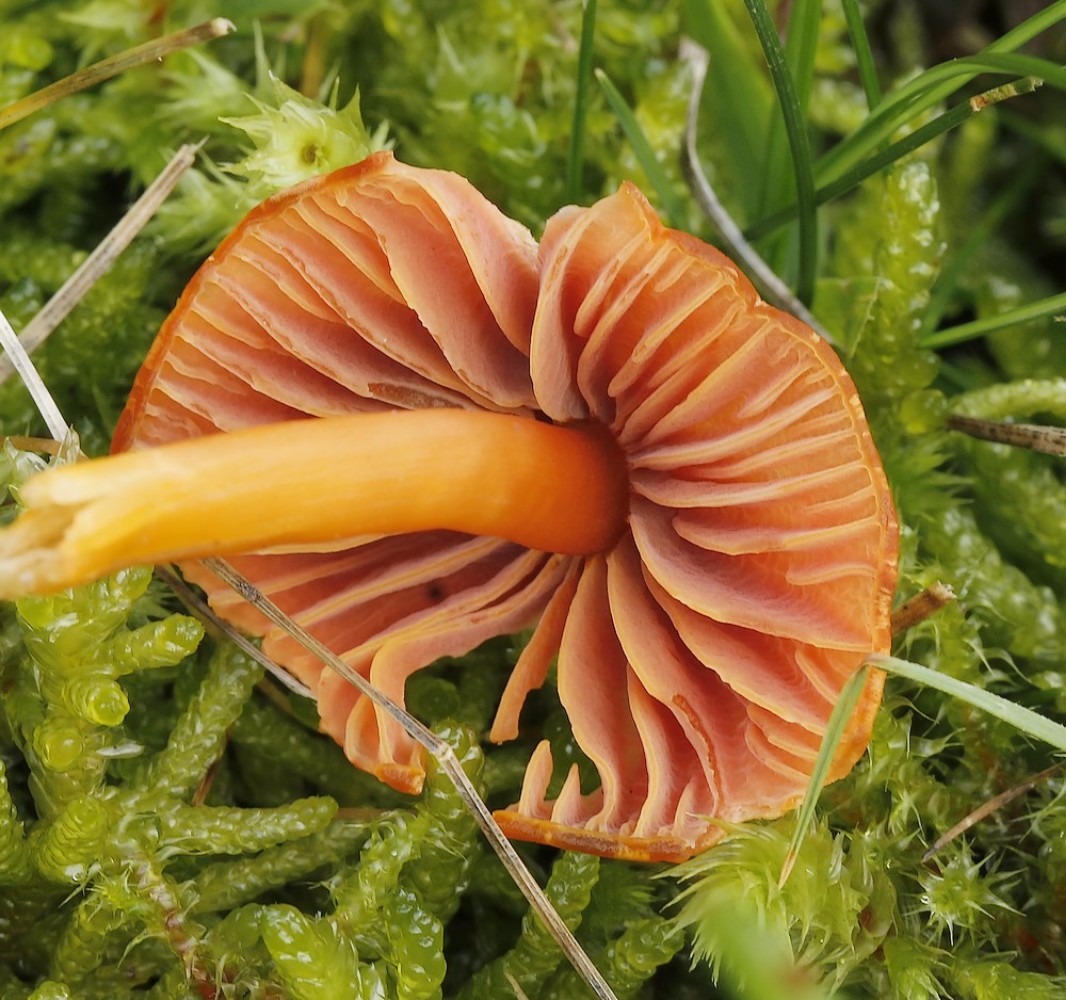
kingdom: Fungi
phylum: Basidiomycota
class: Agaricomycetes
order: Agaricales
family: Hygrophoraceae
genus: Hygrocybe
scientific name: Hygrocybe
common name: vokshat
